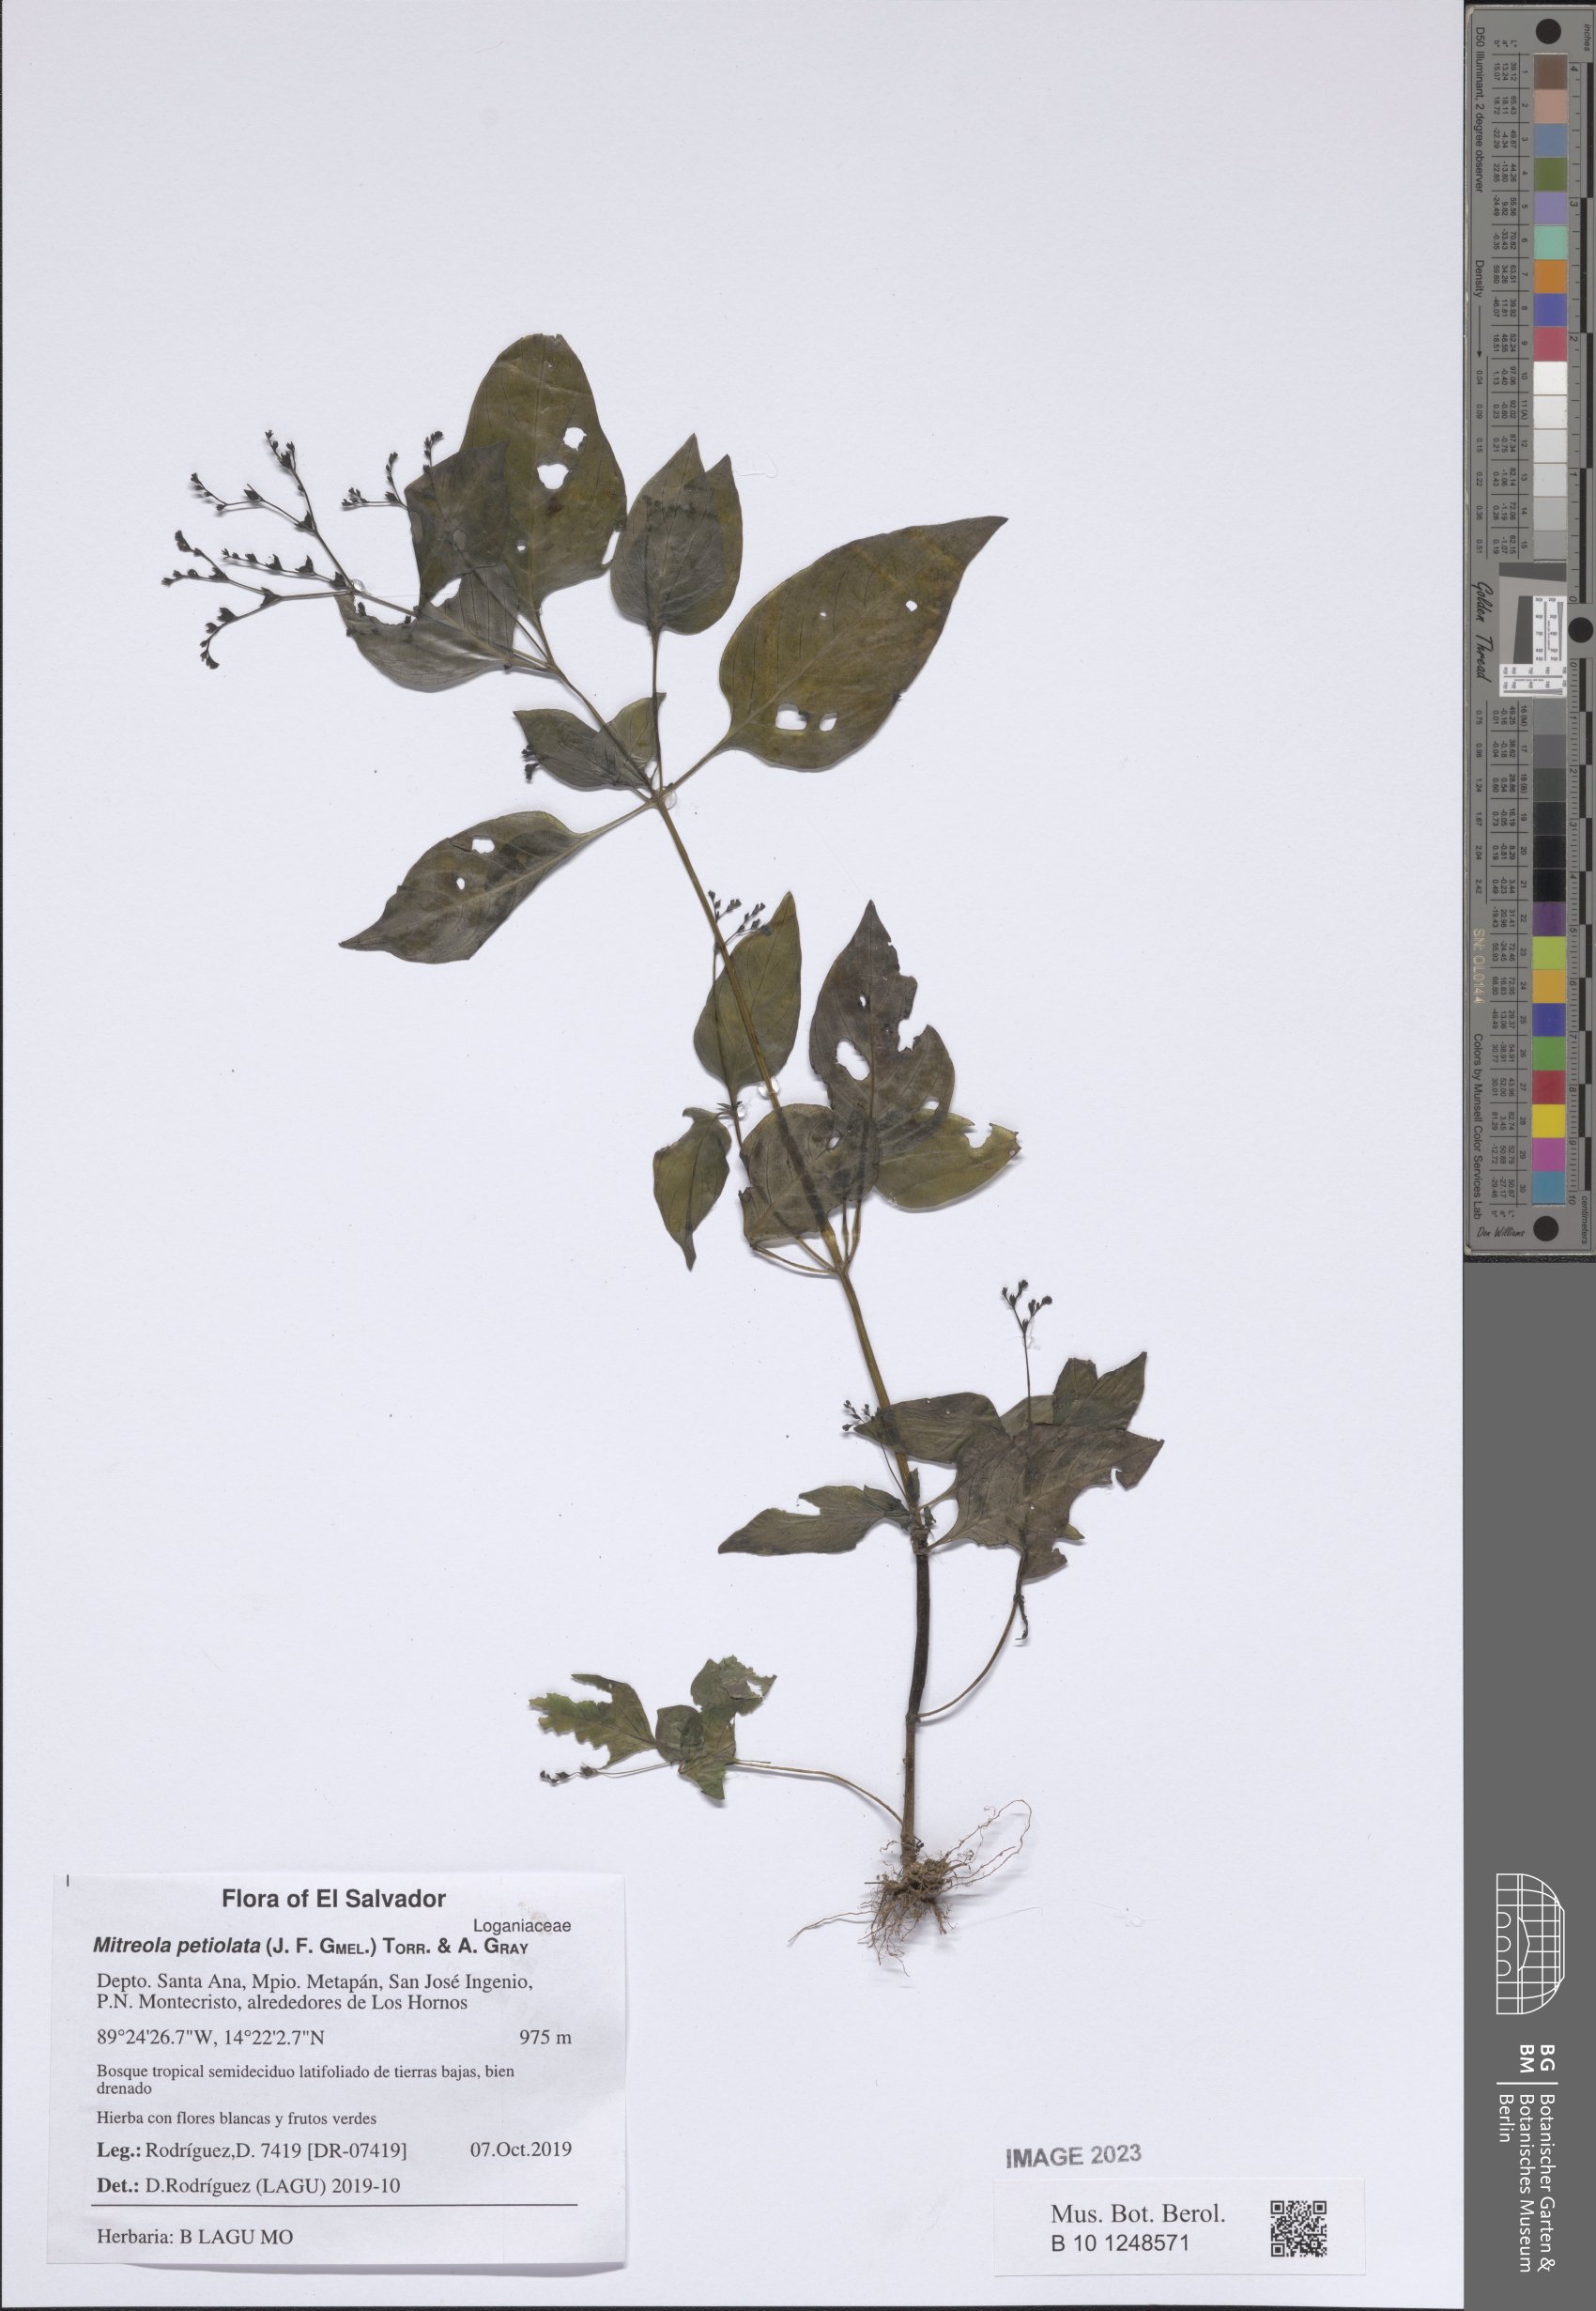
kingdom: Plantae
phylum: Tracheophyta
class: Magnoliopsida
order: Gentianales
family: Loganiaceae
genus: Mitreola
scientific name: Mitreola petiolata
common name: Lax hornpod
